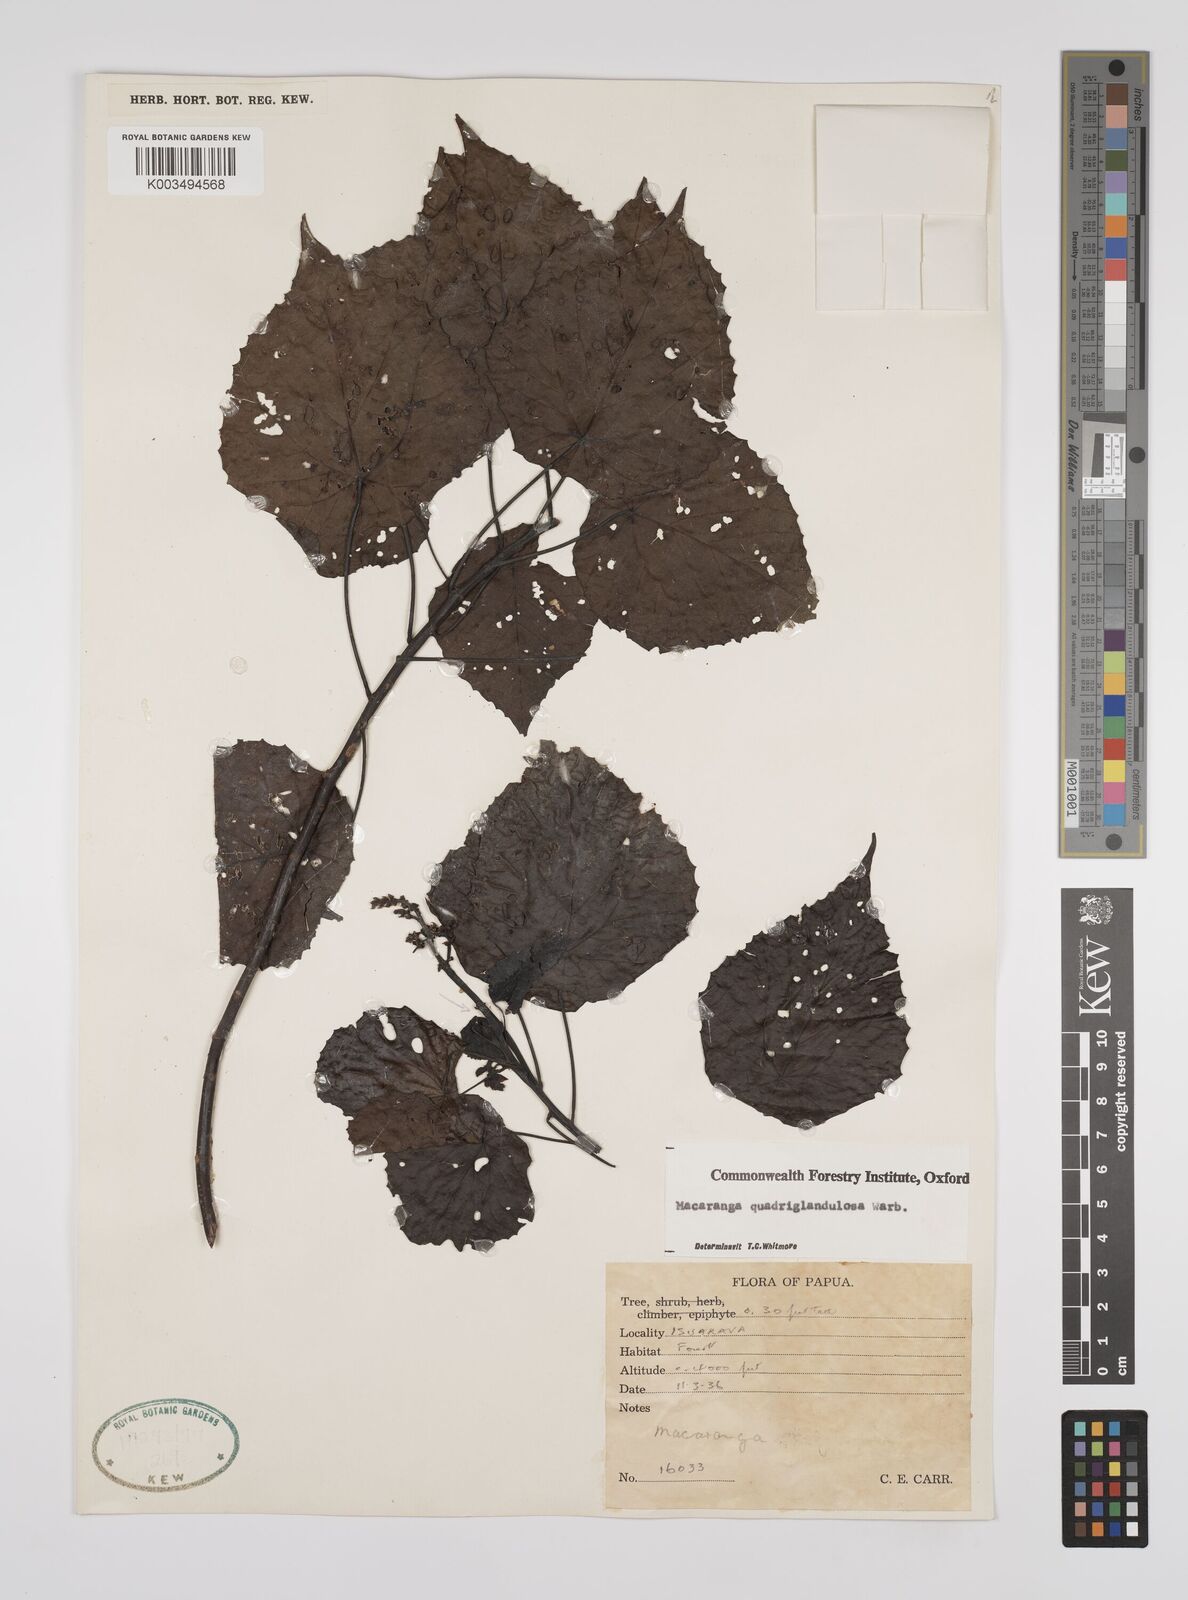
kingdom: Plantae
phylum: Tracheophyta
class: Magnoliopsida
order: Malpighiales
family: Euphorbiaceae
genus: Macaranga
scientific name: Macaranga quadriglandulosa
